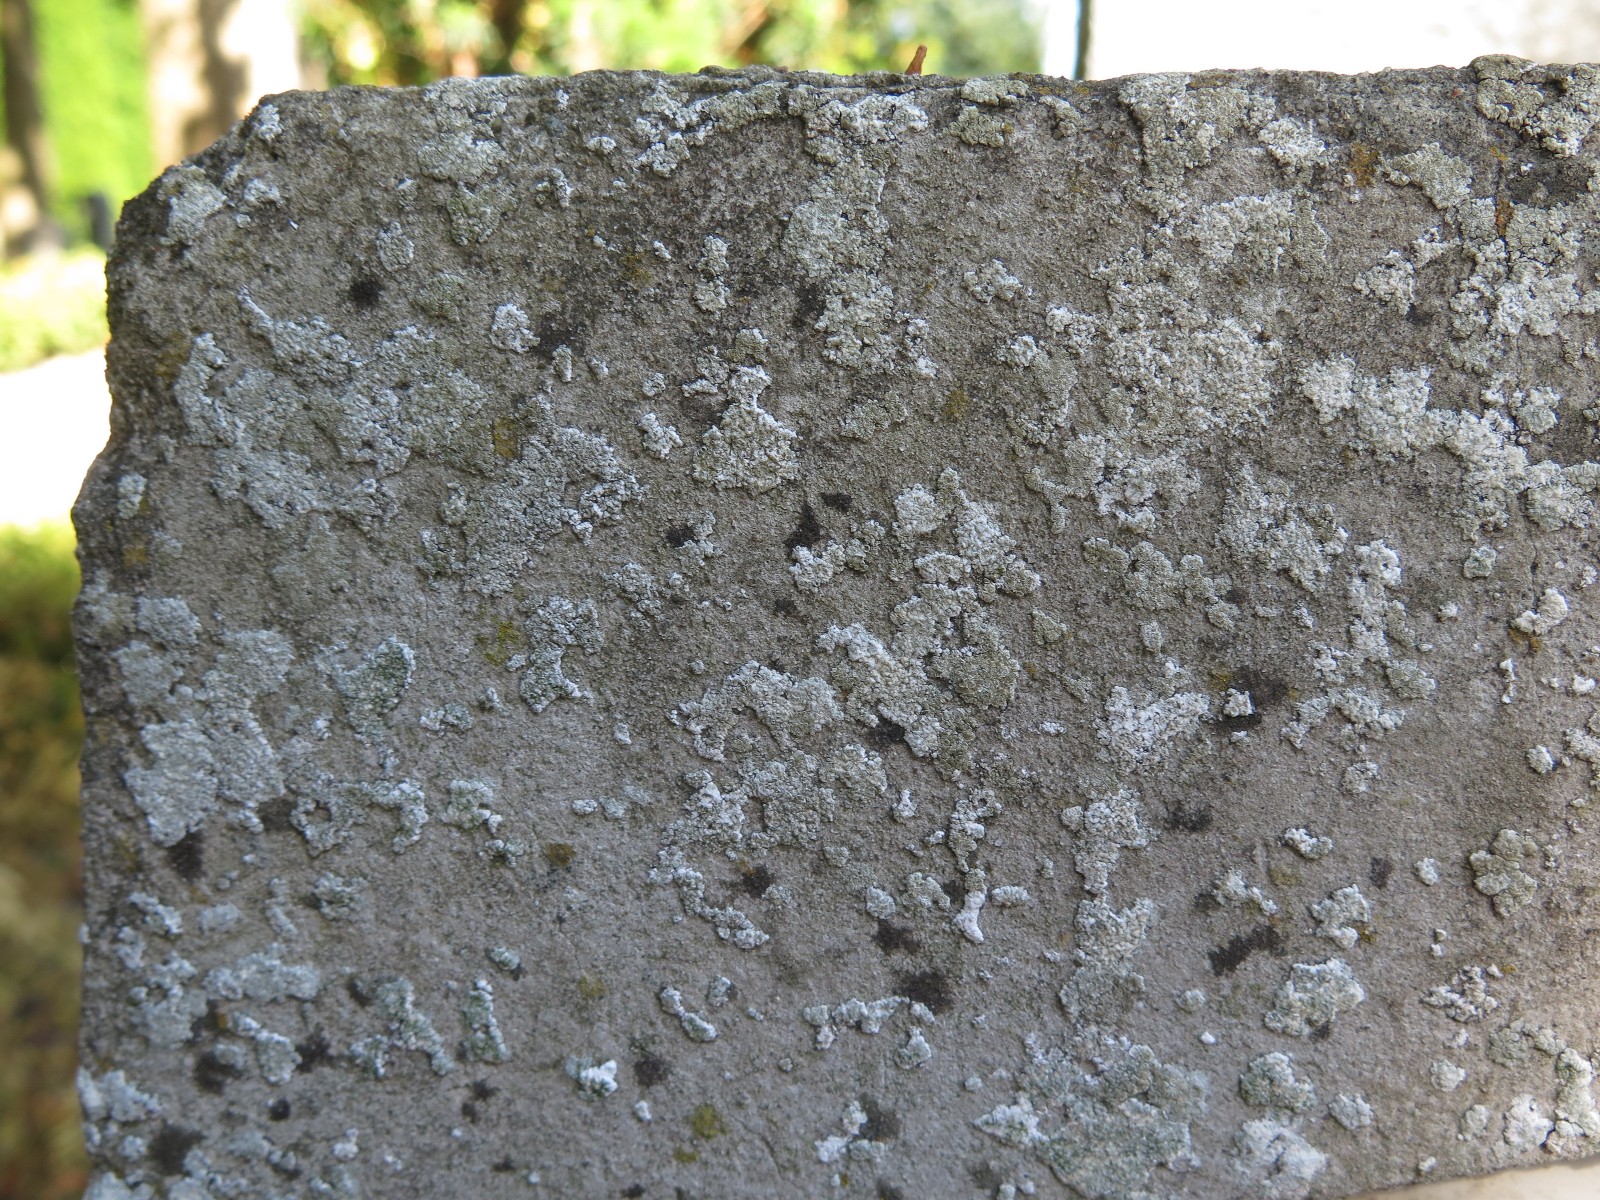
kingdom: Fungi
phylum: Ascomycota
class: Lecanoromycetes
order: Lecanorales
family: Lecanoraceae
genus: Polyozosia
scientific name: Polyozosia albescens
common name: cement-kantskivelav
